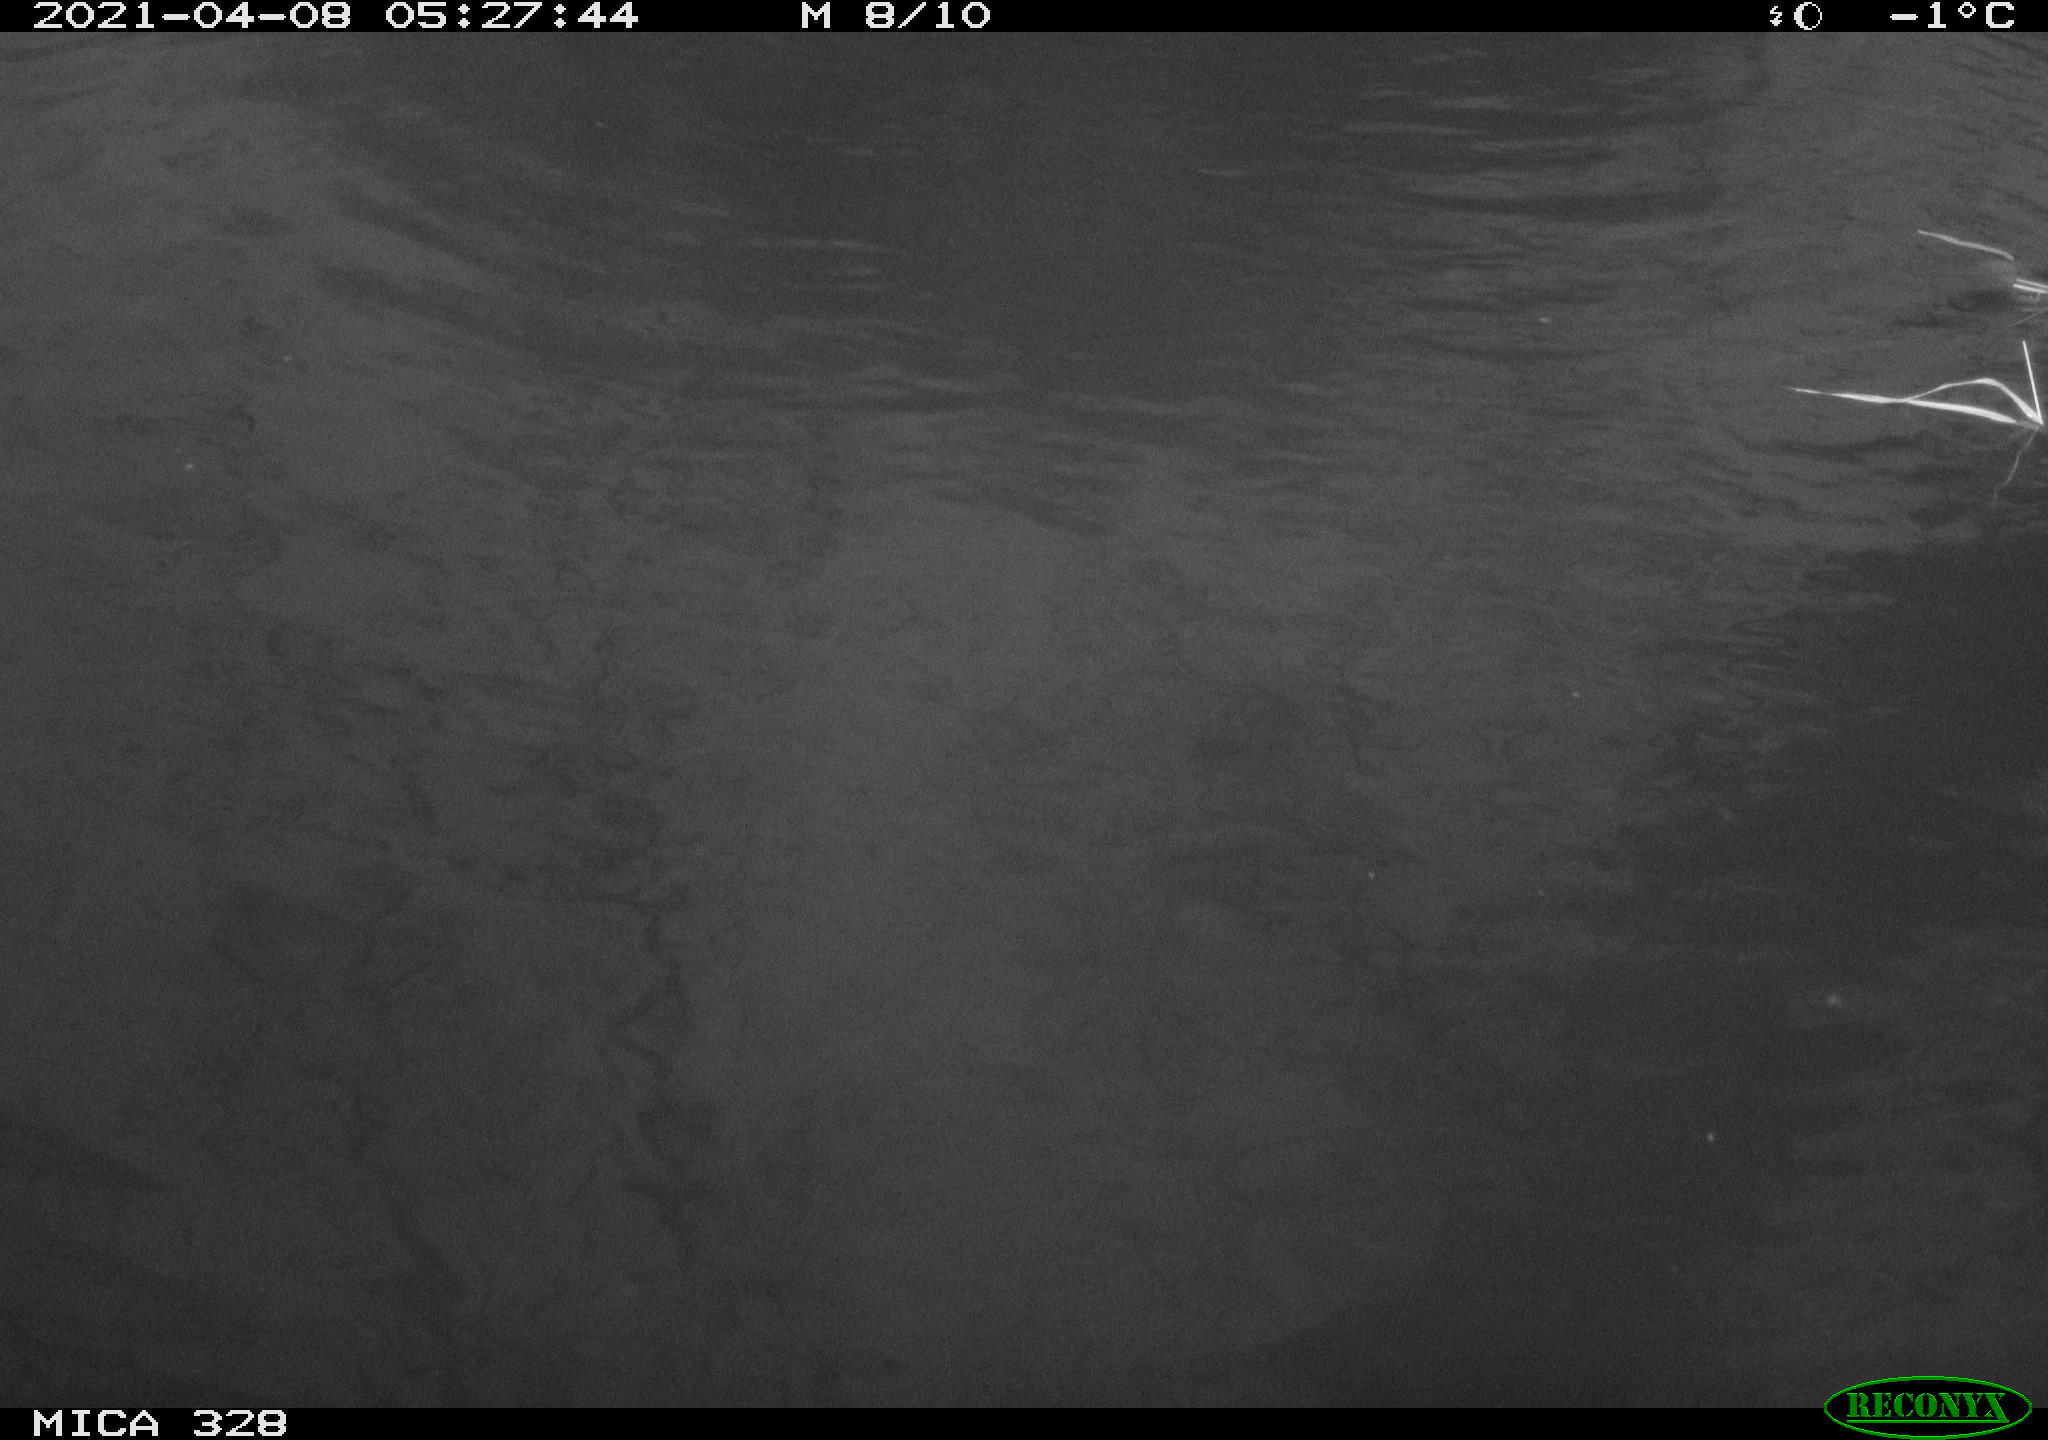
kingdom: Animalia
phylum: Chordata
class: Mammalia
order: Rodentia
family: Cricetidae
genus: Ondatra
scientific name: Ondatra zibethicus
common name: Muskrat
